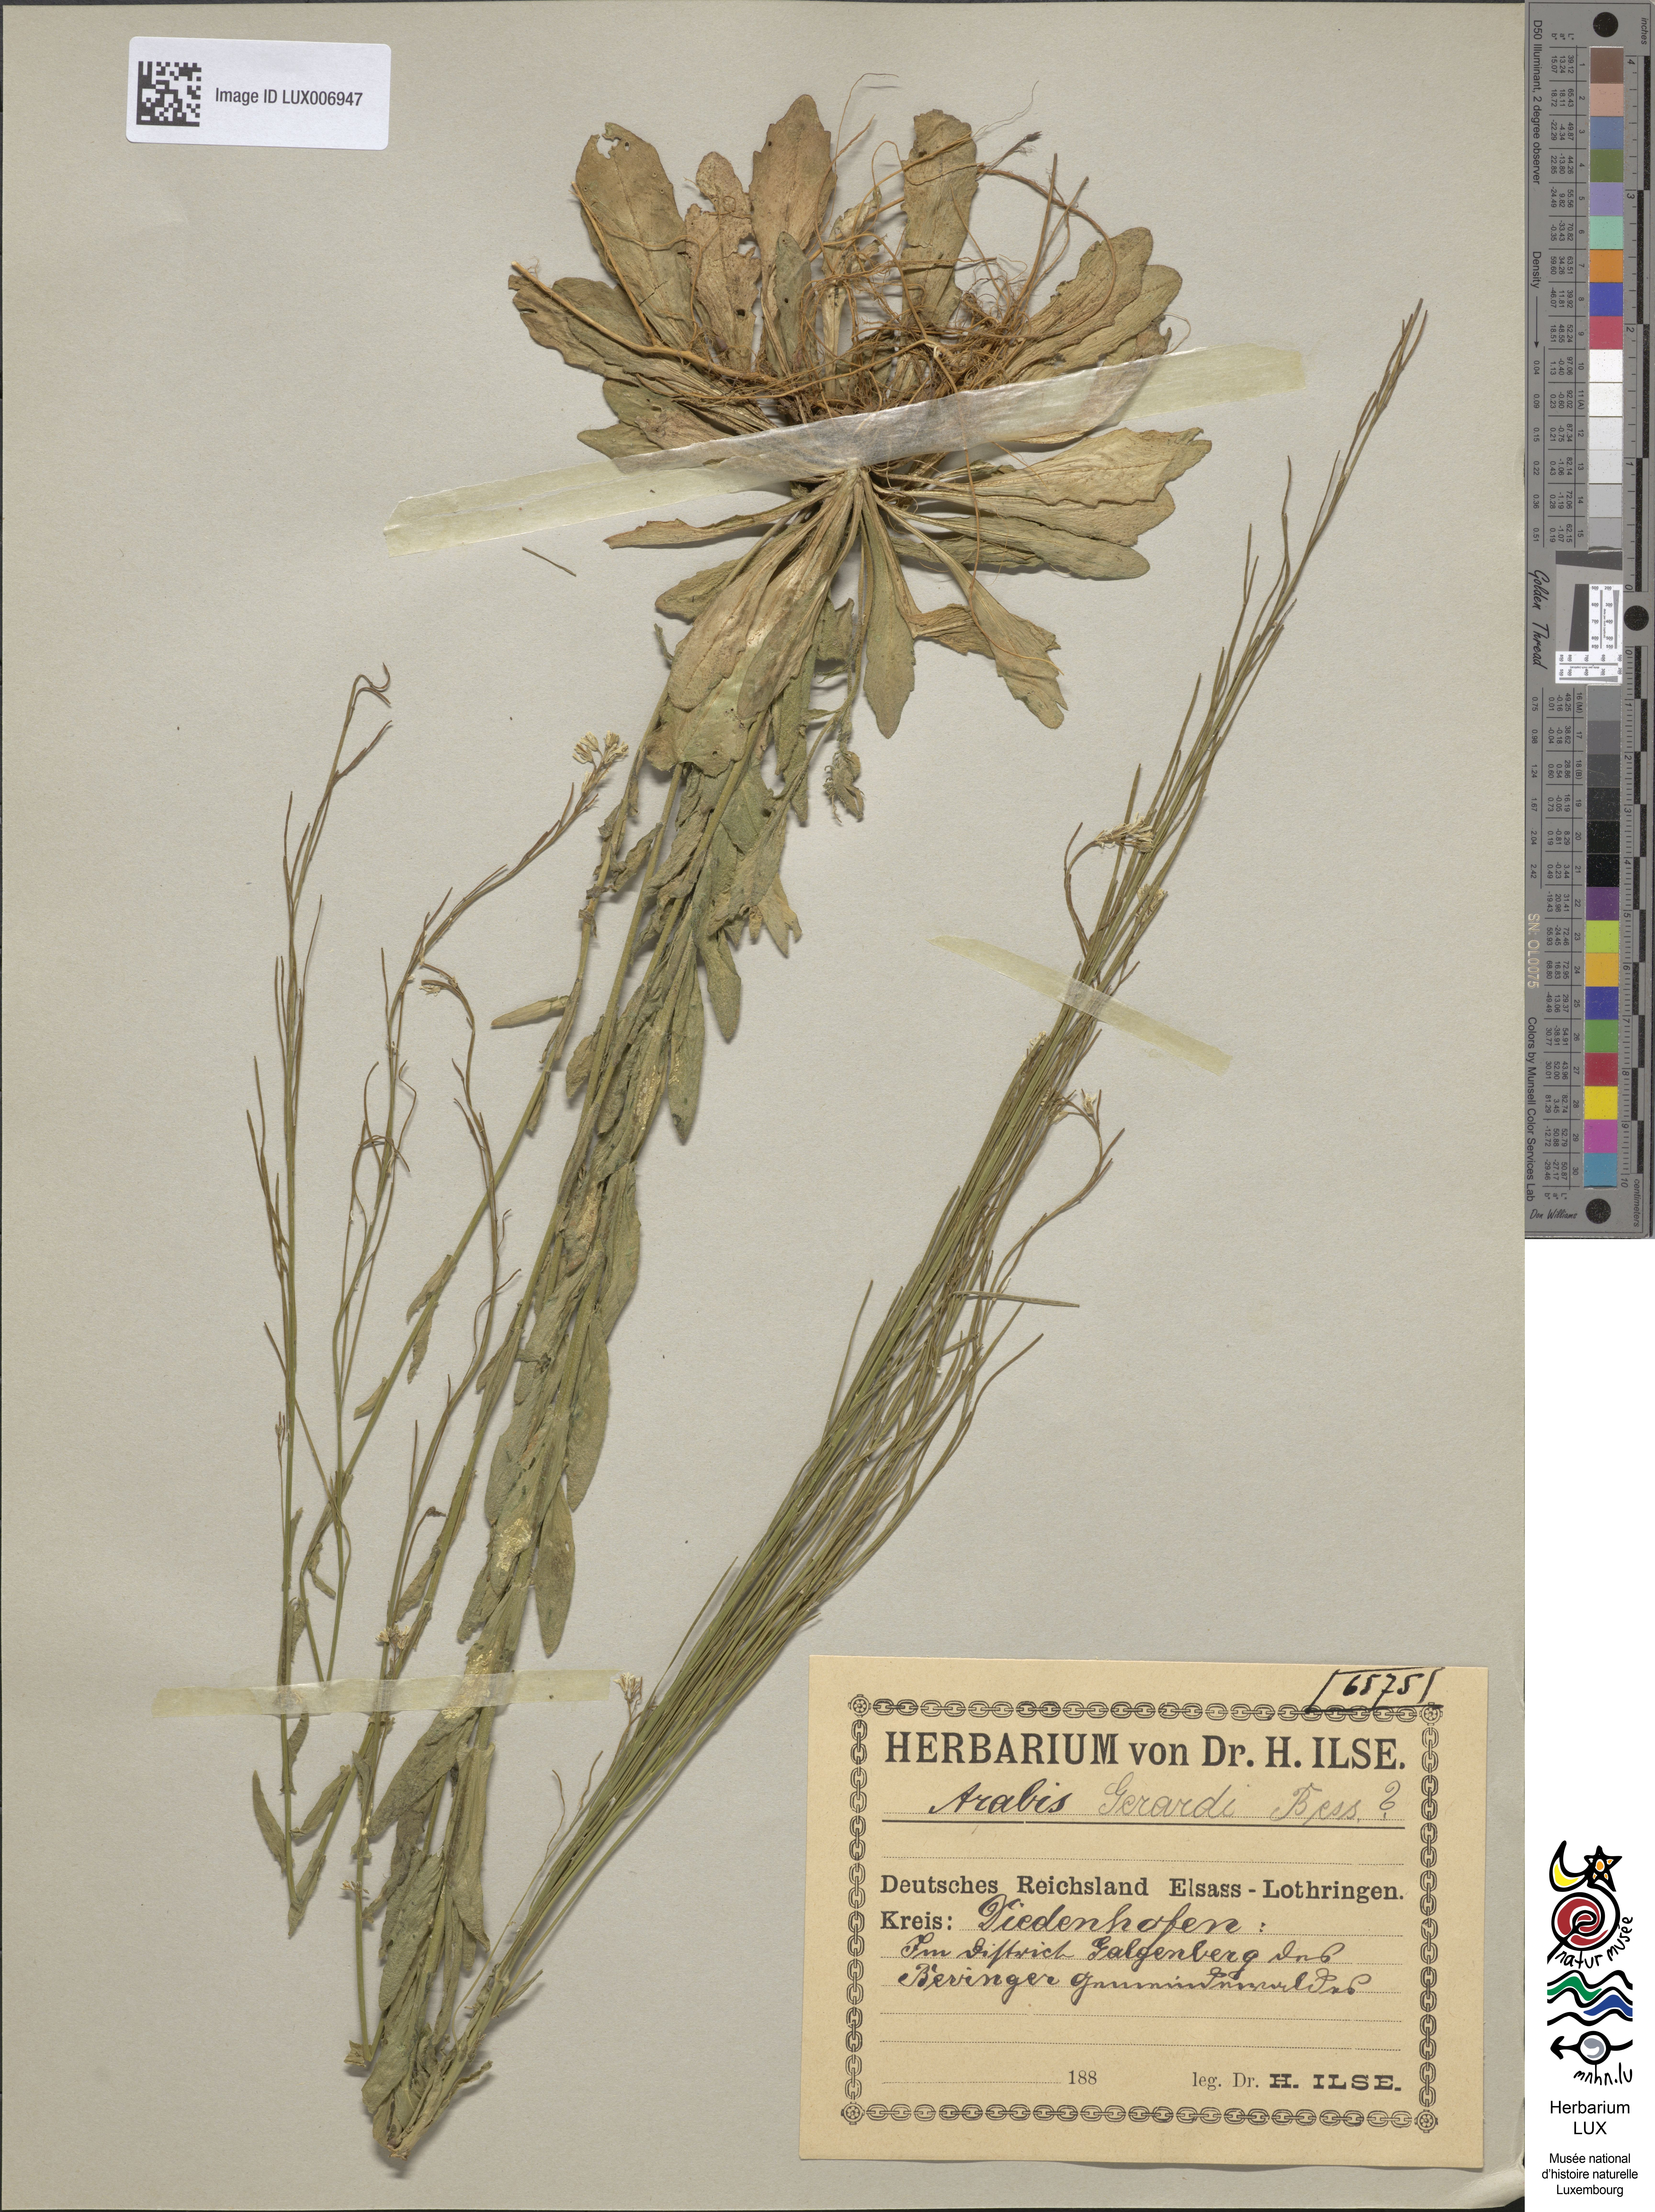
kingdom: Plantae
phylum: Tracheophyta
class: Magnoliopsida
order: Brassicales
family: Brassicaceae
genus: Arabis
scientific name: Arabis planisiliqua
